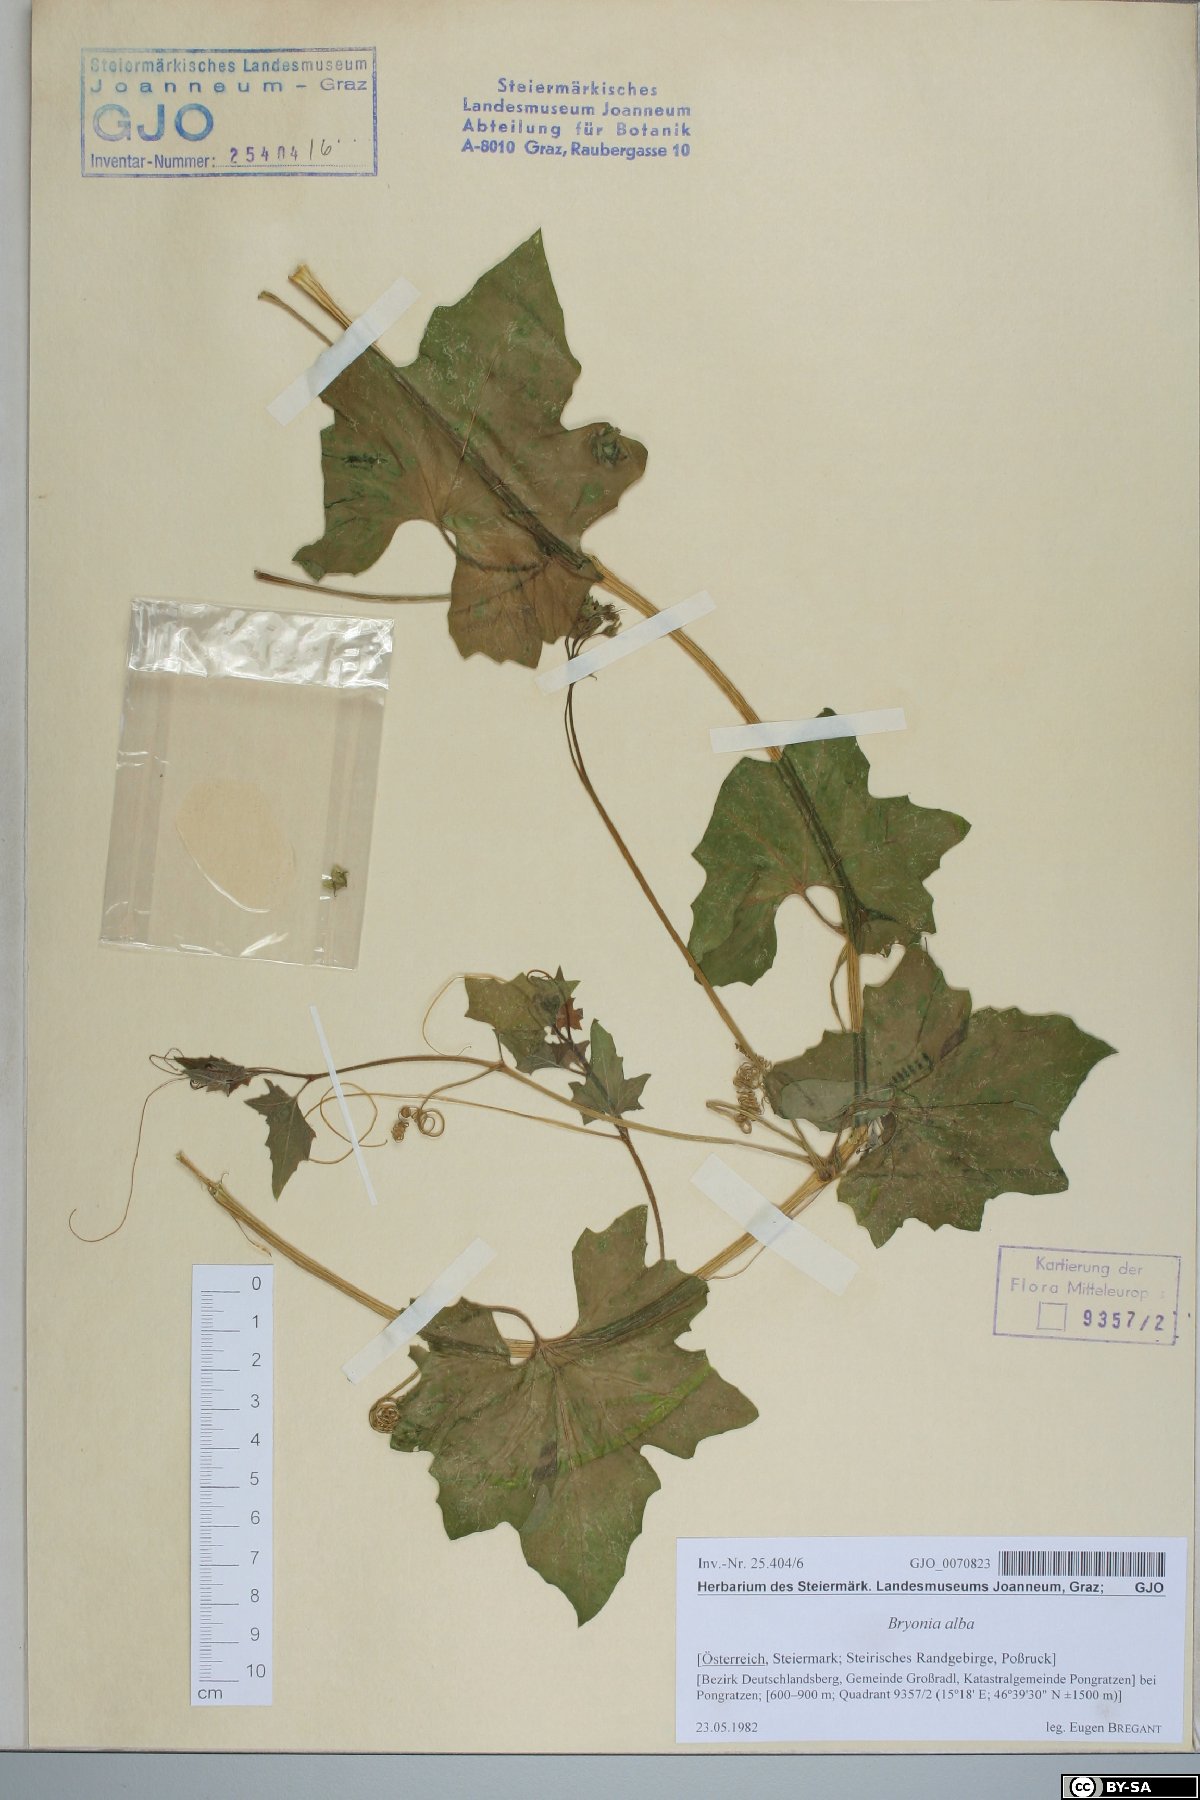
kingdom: Plantae
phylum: Tracheophyta
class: Magnoliopsida
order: Cucurbitales
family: Cucurbitaceae
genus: Bryonia
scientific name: Bryonia alba
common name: White bryony
